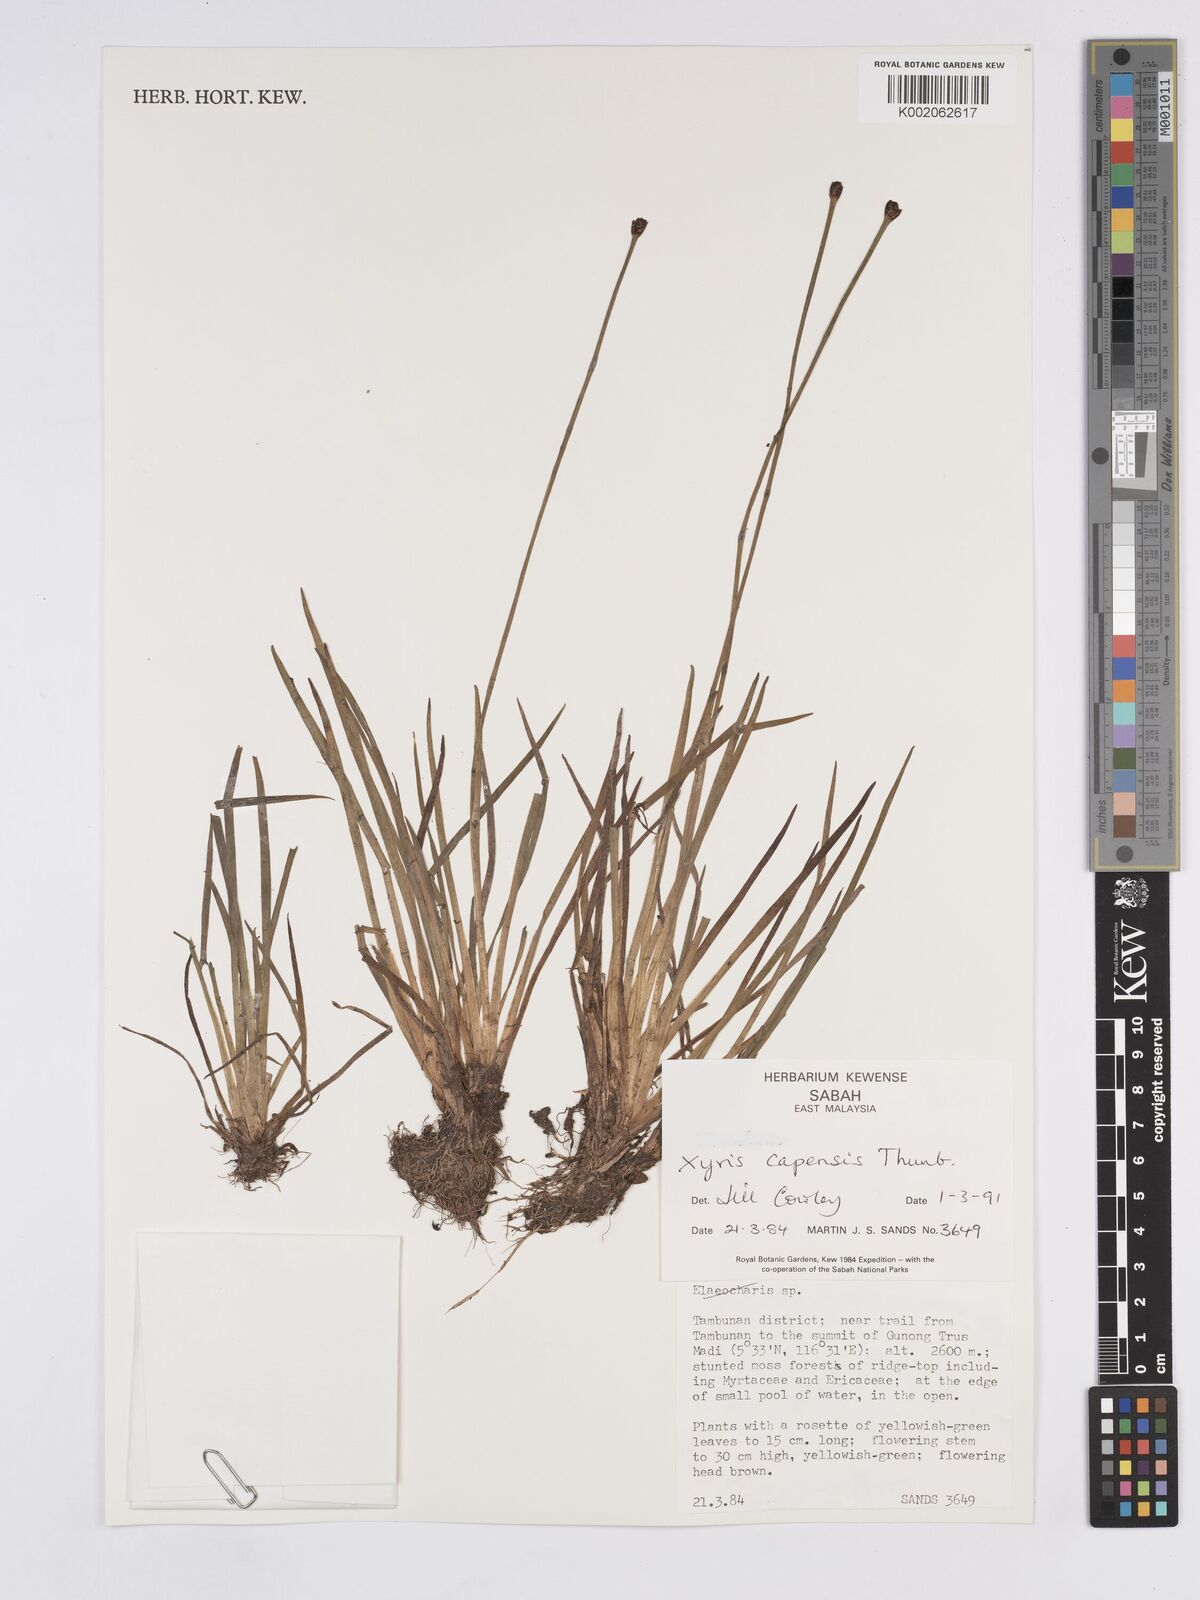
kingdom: Plantae
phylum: Tracheophyta
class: Liliopsida
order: Poales
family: Xyridaceae
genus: Xyris
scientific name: Xyris capensis
